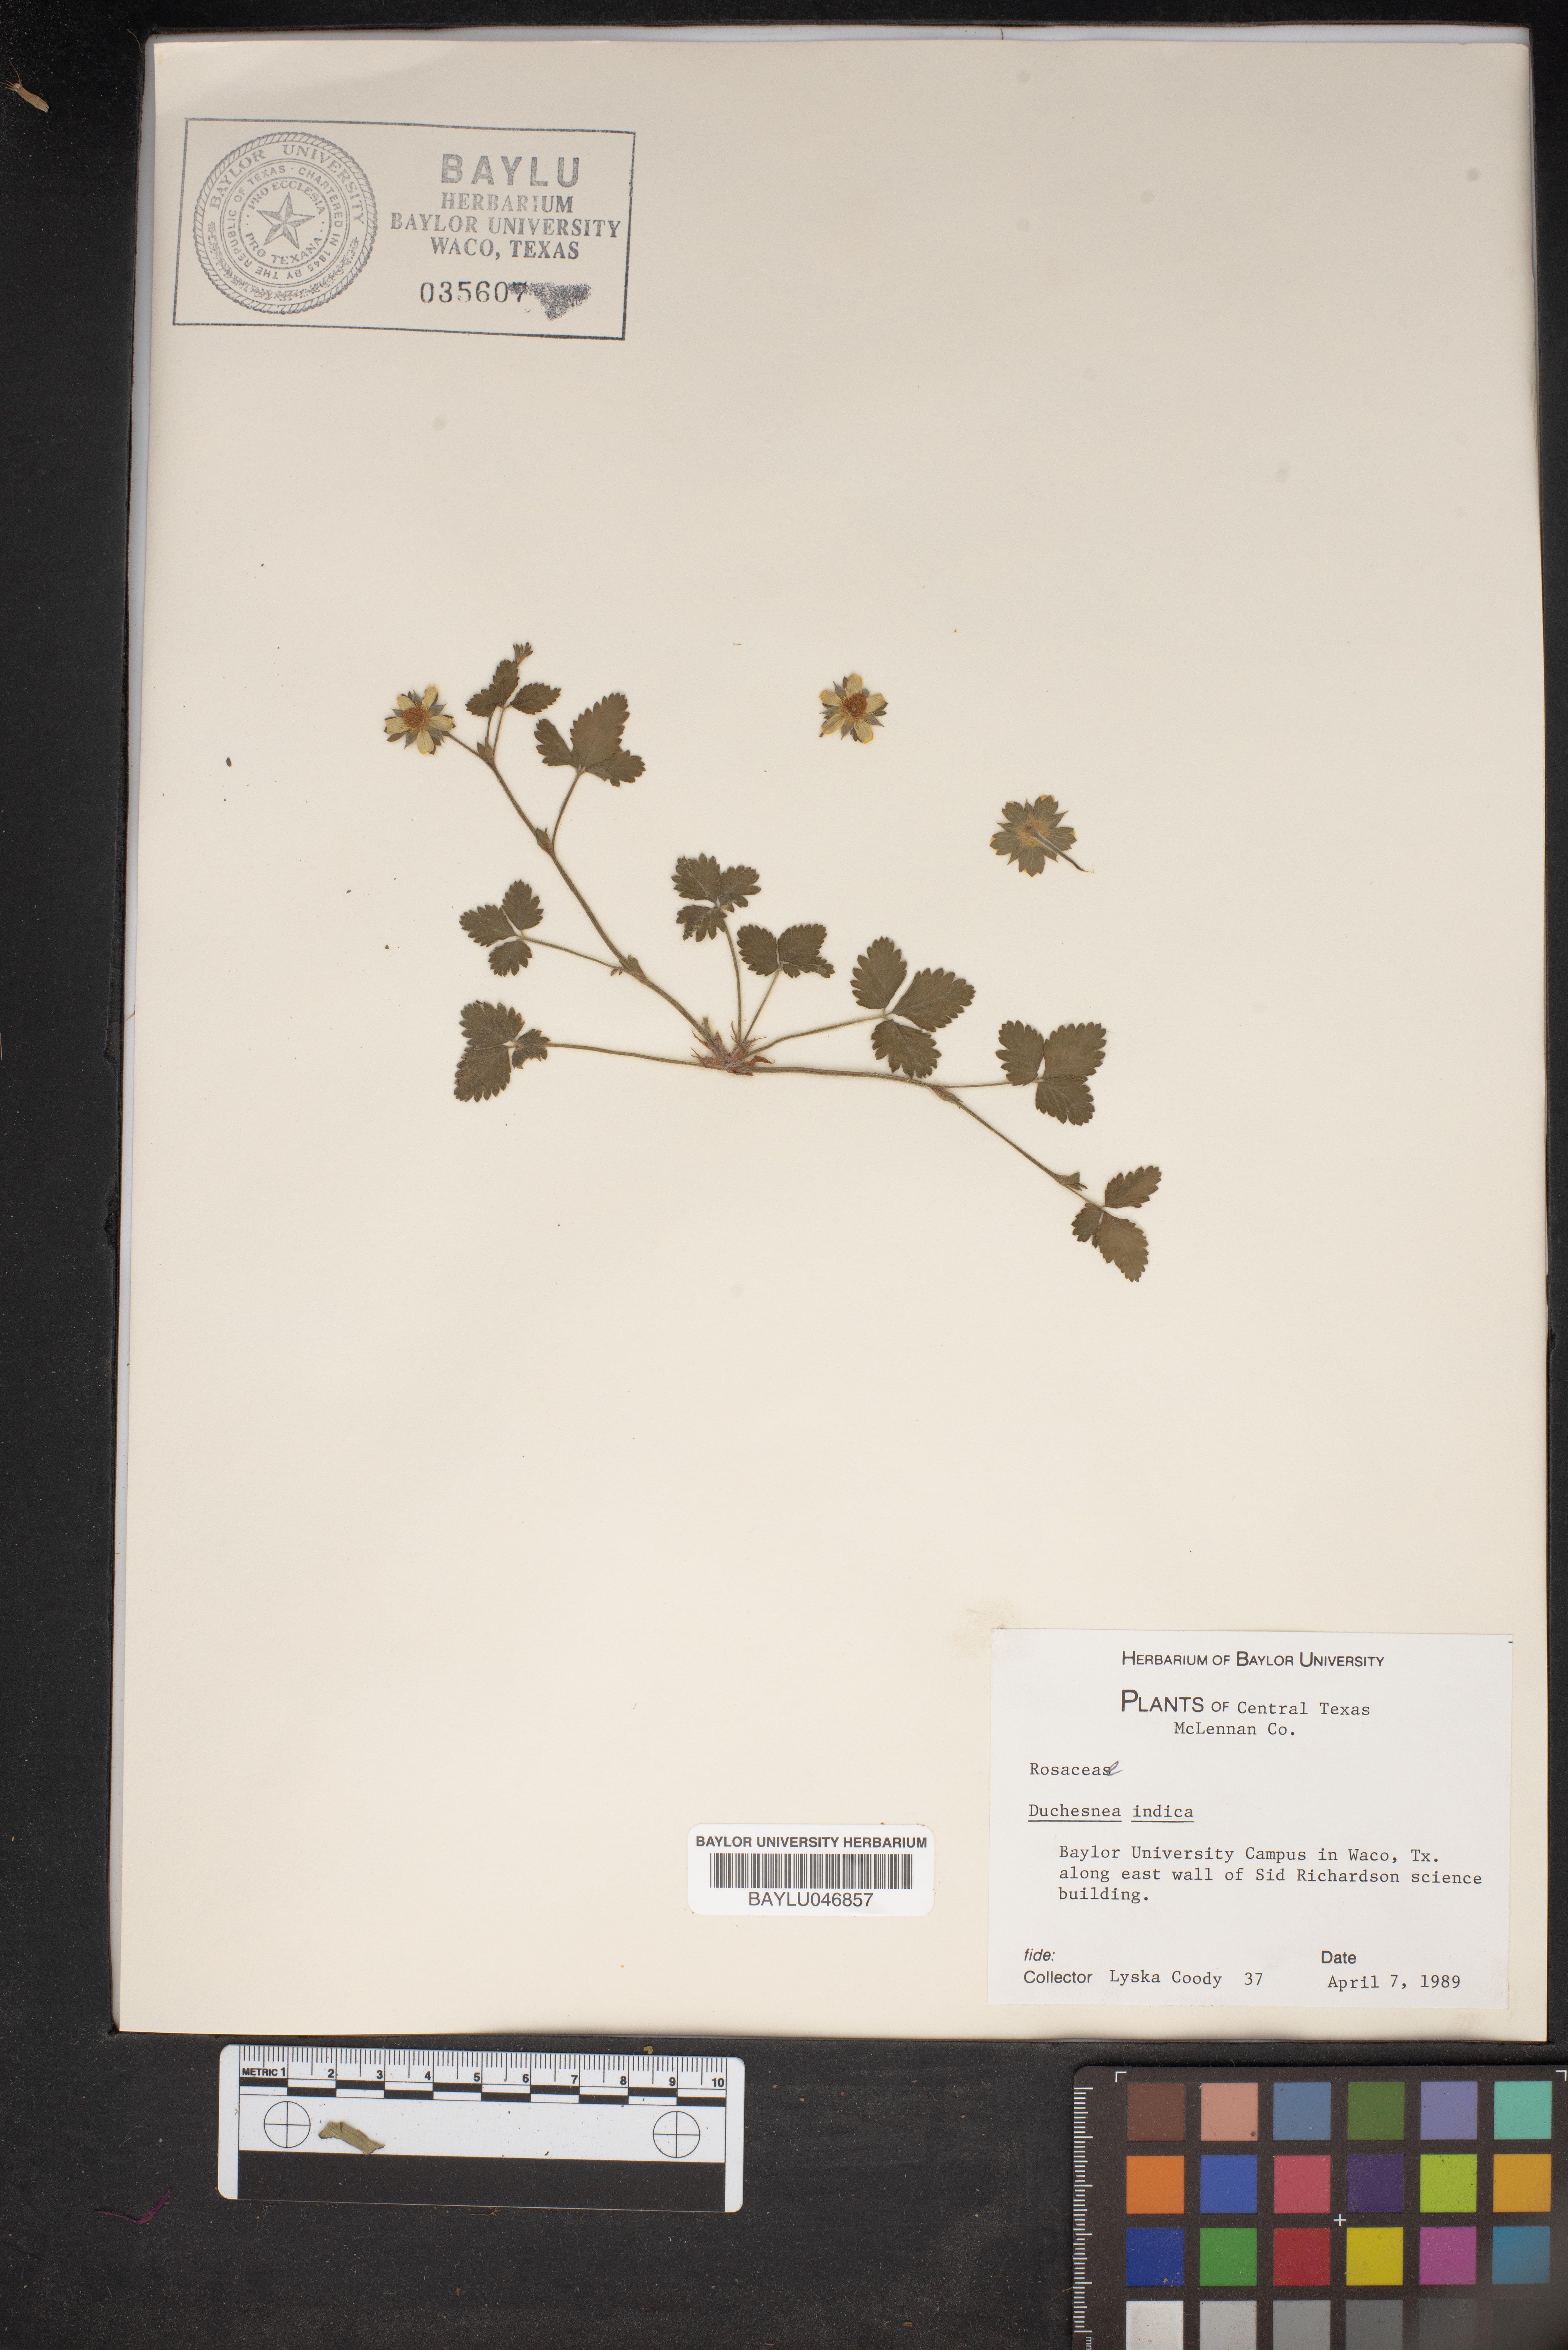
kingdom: Plantae
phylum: Tracheophyta
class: Magnoliopsida
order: Rosales
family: Rosaceae
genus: Potentilla
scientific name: Potentilla indica
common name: Yellow-flowered strawberry
